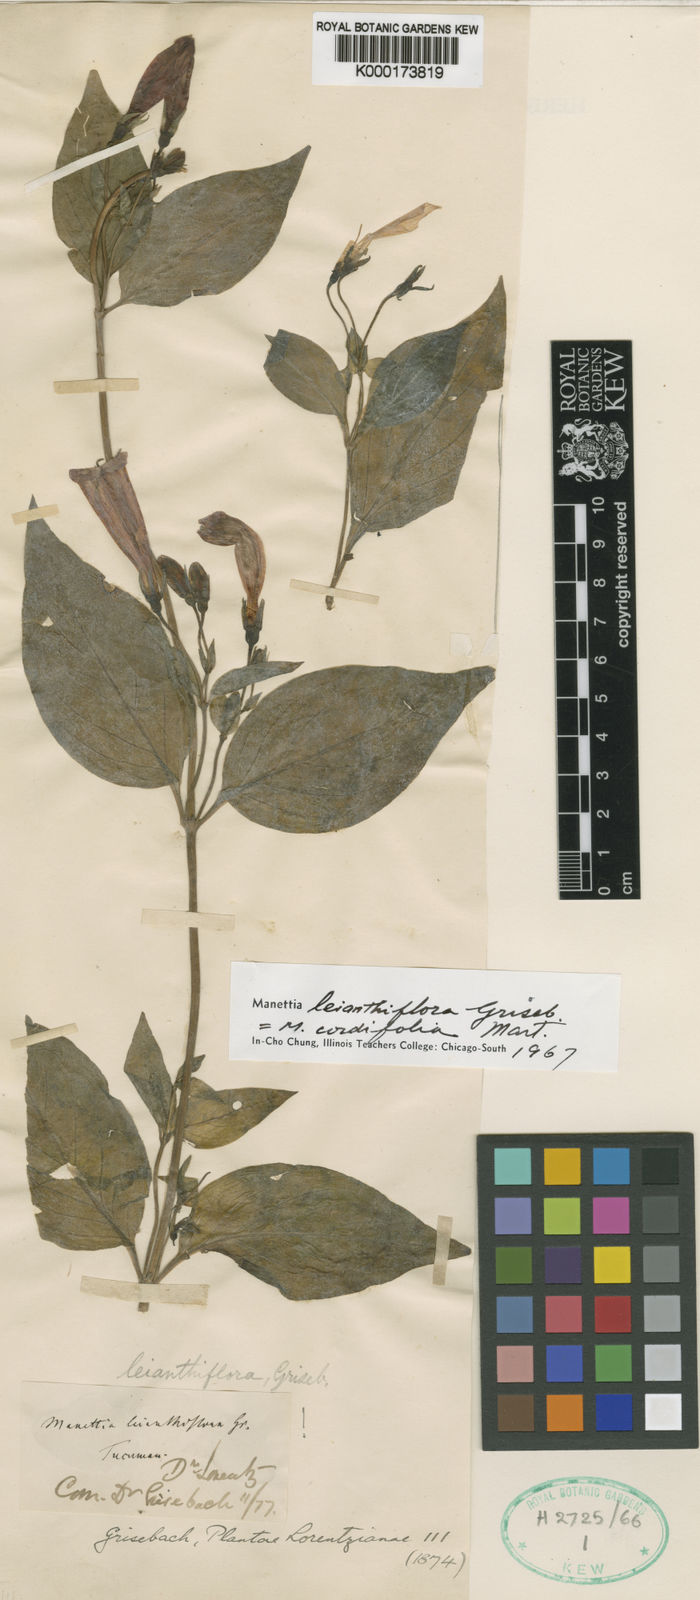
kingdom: Plantae
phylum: Tracheophyta
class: Magnoliopsida
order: Gentianales
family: Rubiaceae
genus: Manettia
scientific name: Manettia cordifolia
